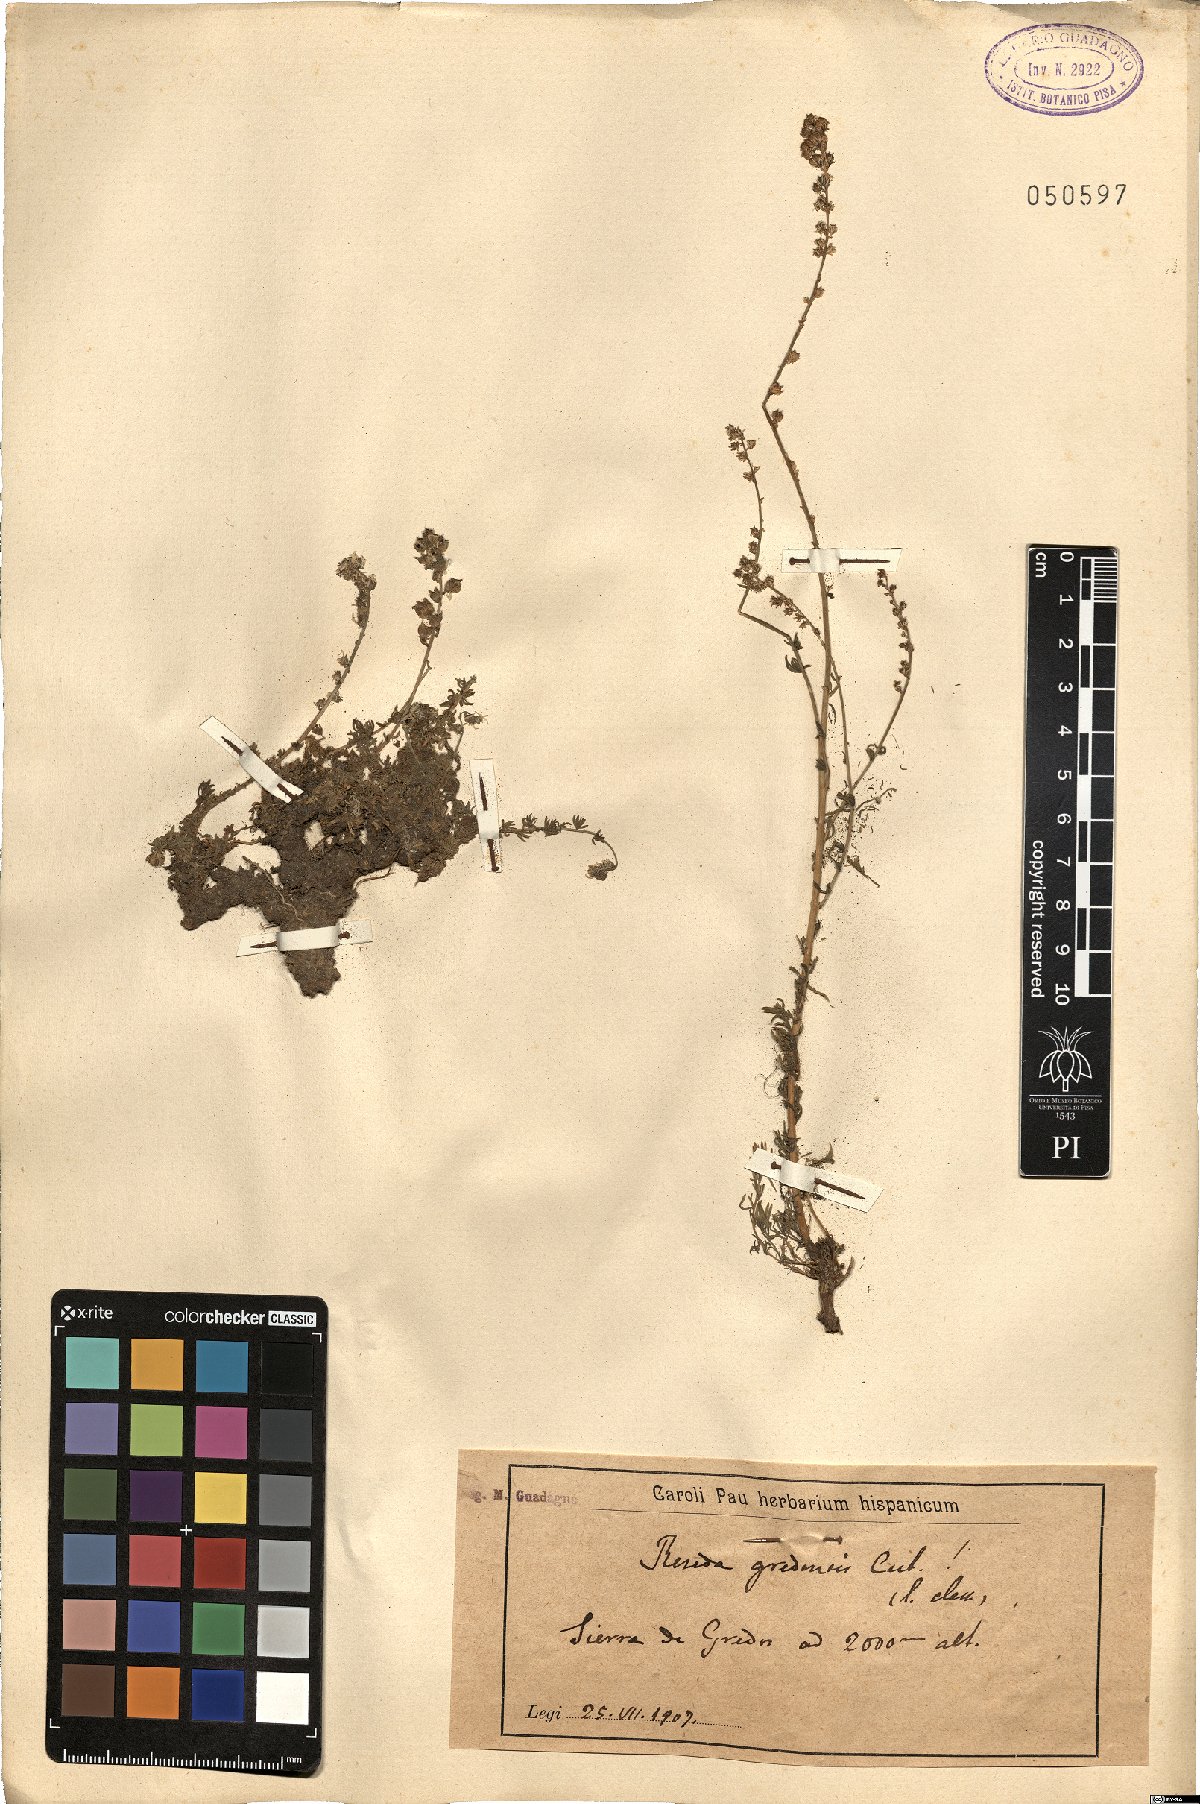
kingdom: Plantae
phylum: Tracheophyta
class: Magnoliopsida
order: Brassicales
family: Resedaceae
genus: Reseda
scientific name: Reseda gredensis
